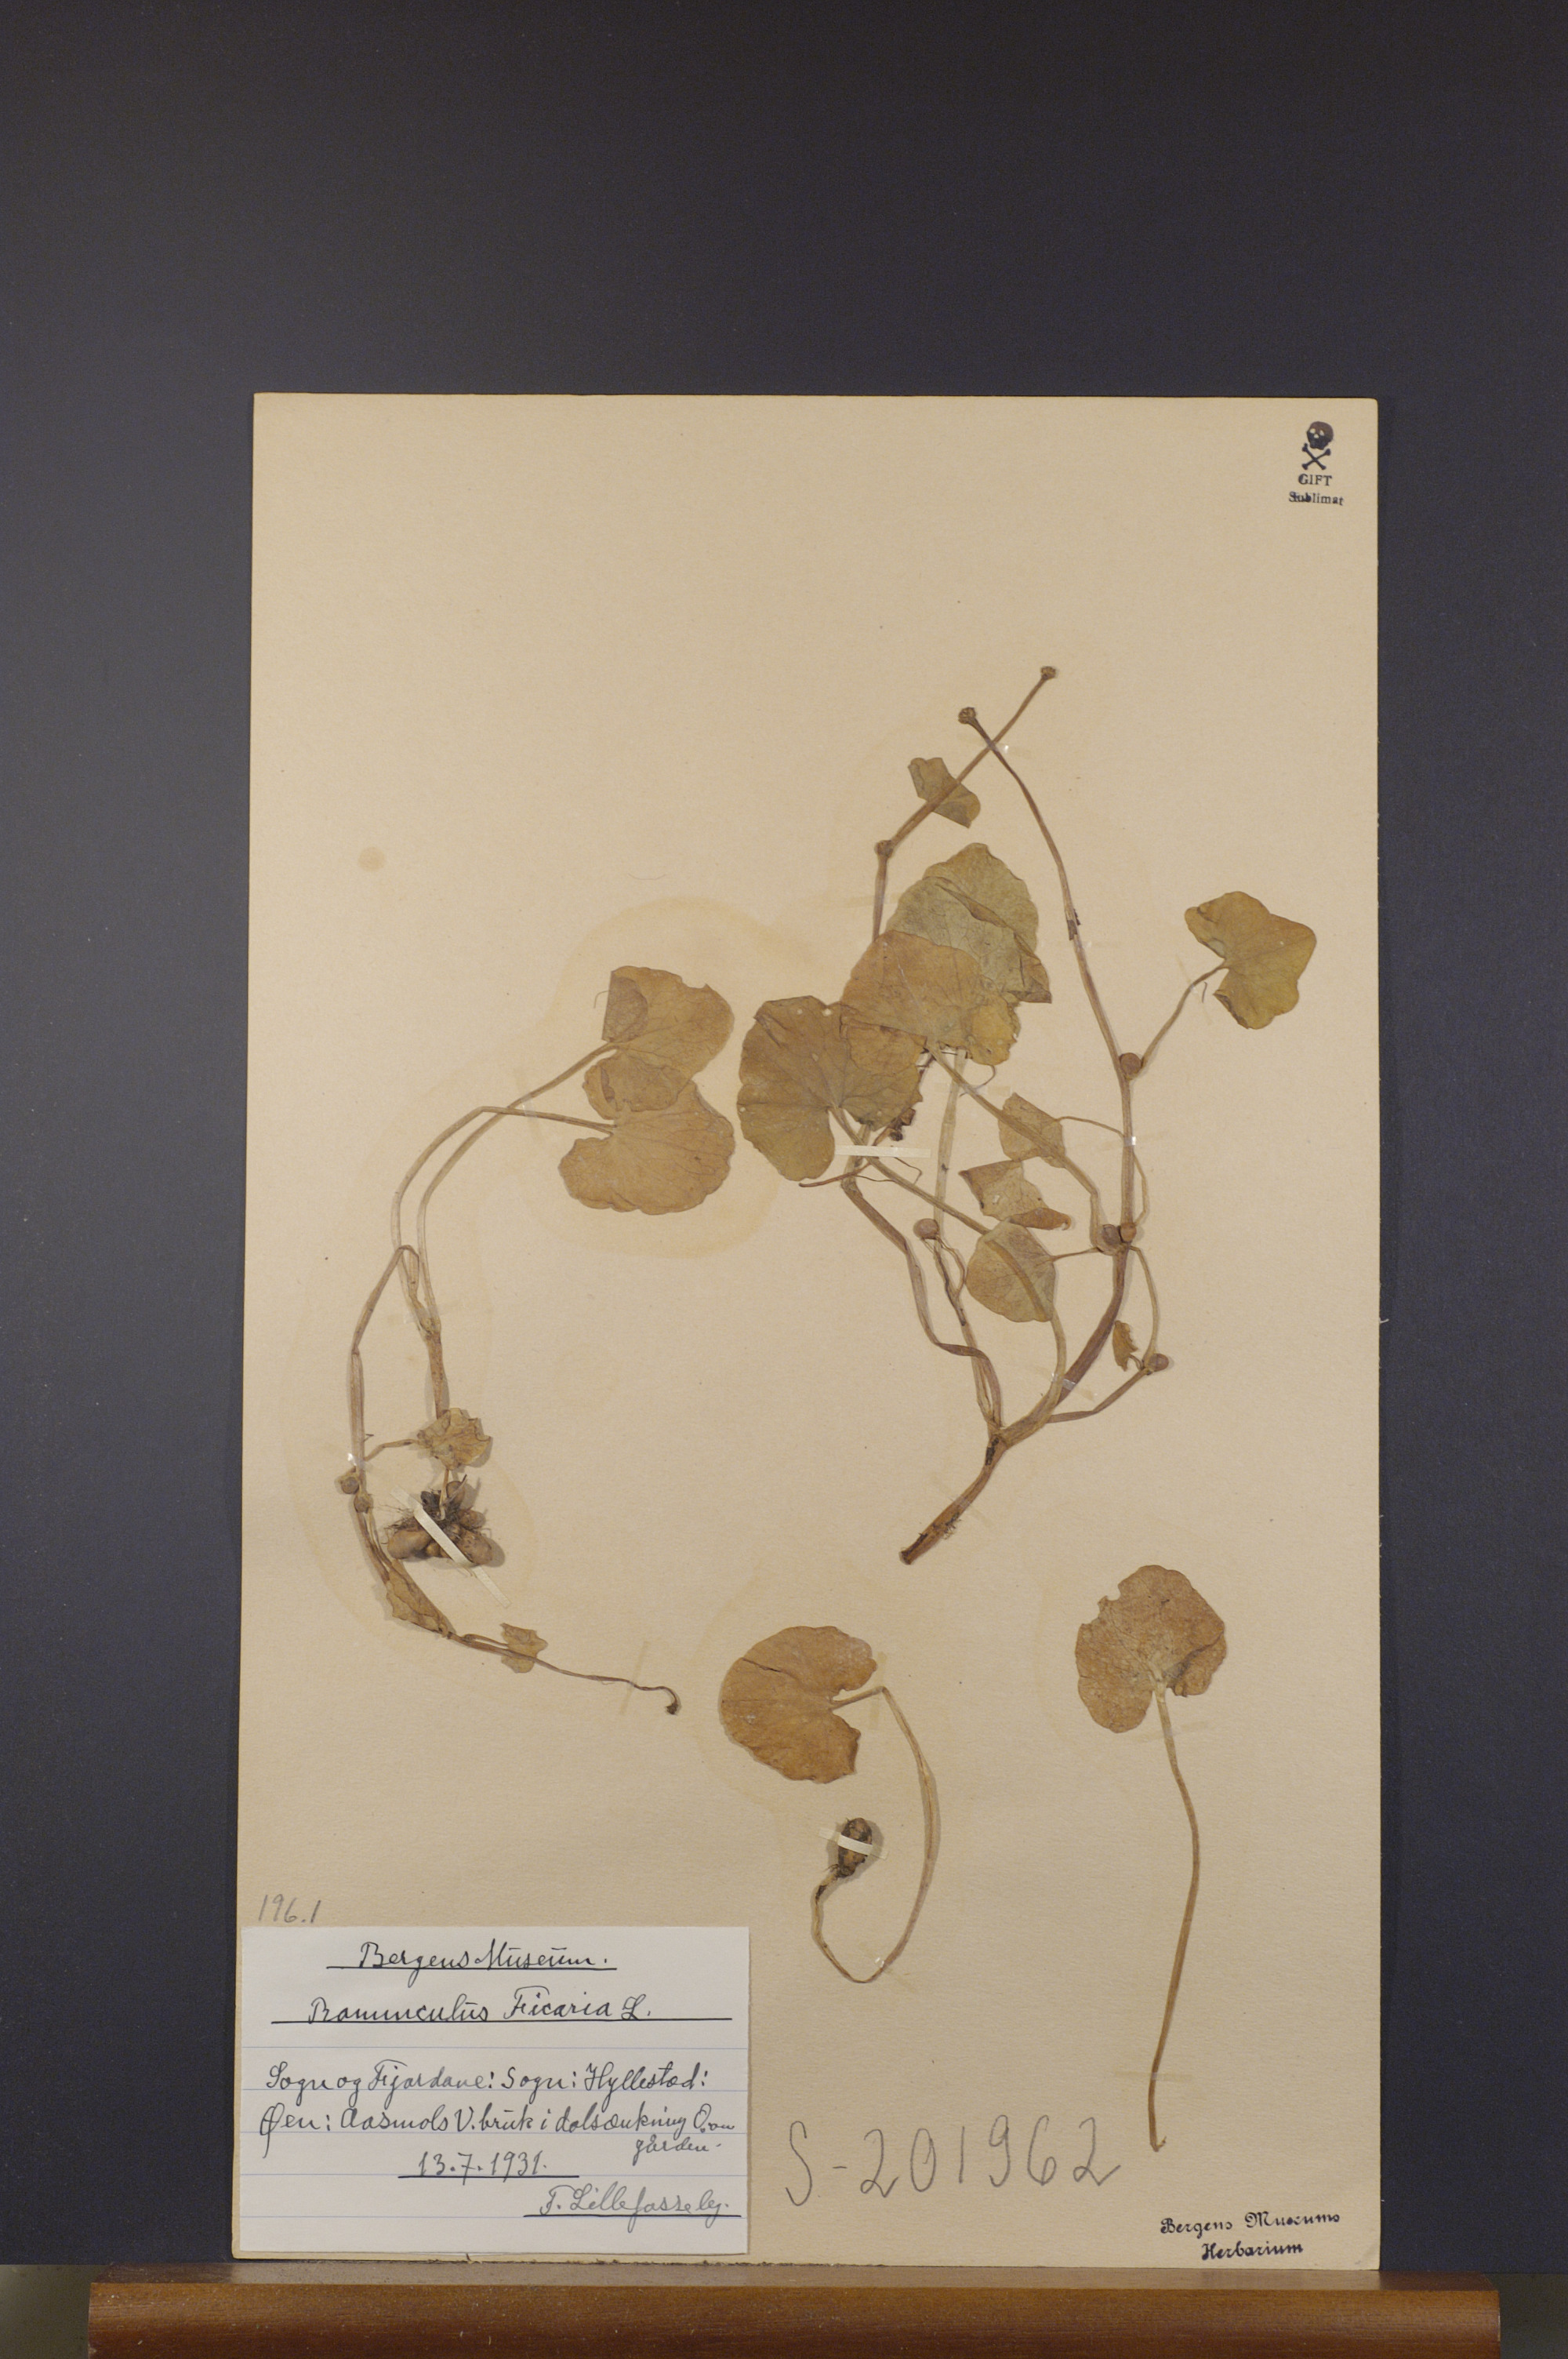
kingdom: Plantae
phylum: Tracheophyta
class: Magnoliopsida
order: Ranunculales
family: Ranunculaceae
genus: Ficaria
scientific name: Ficaria verna
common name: Lesser celandine
